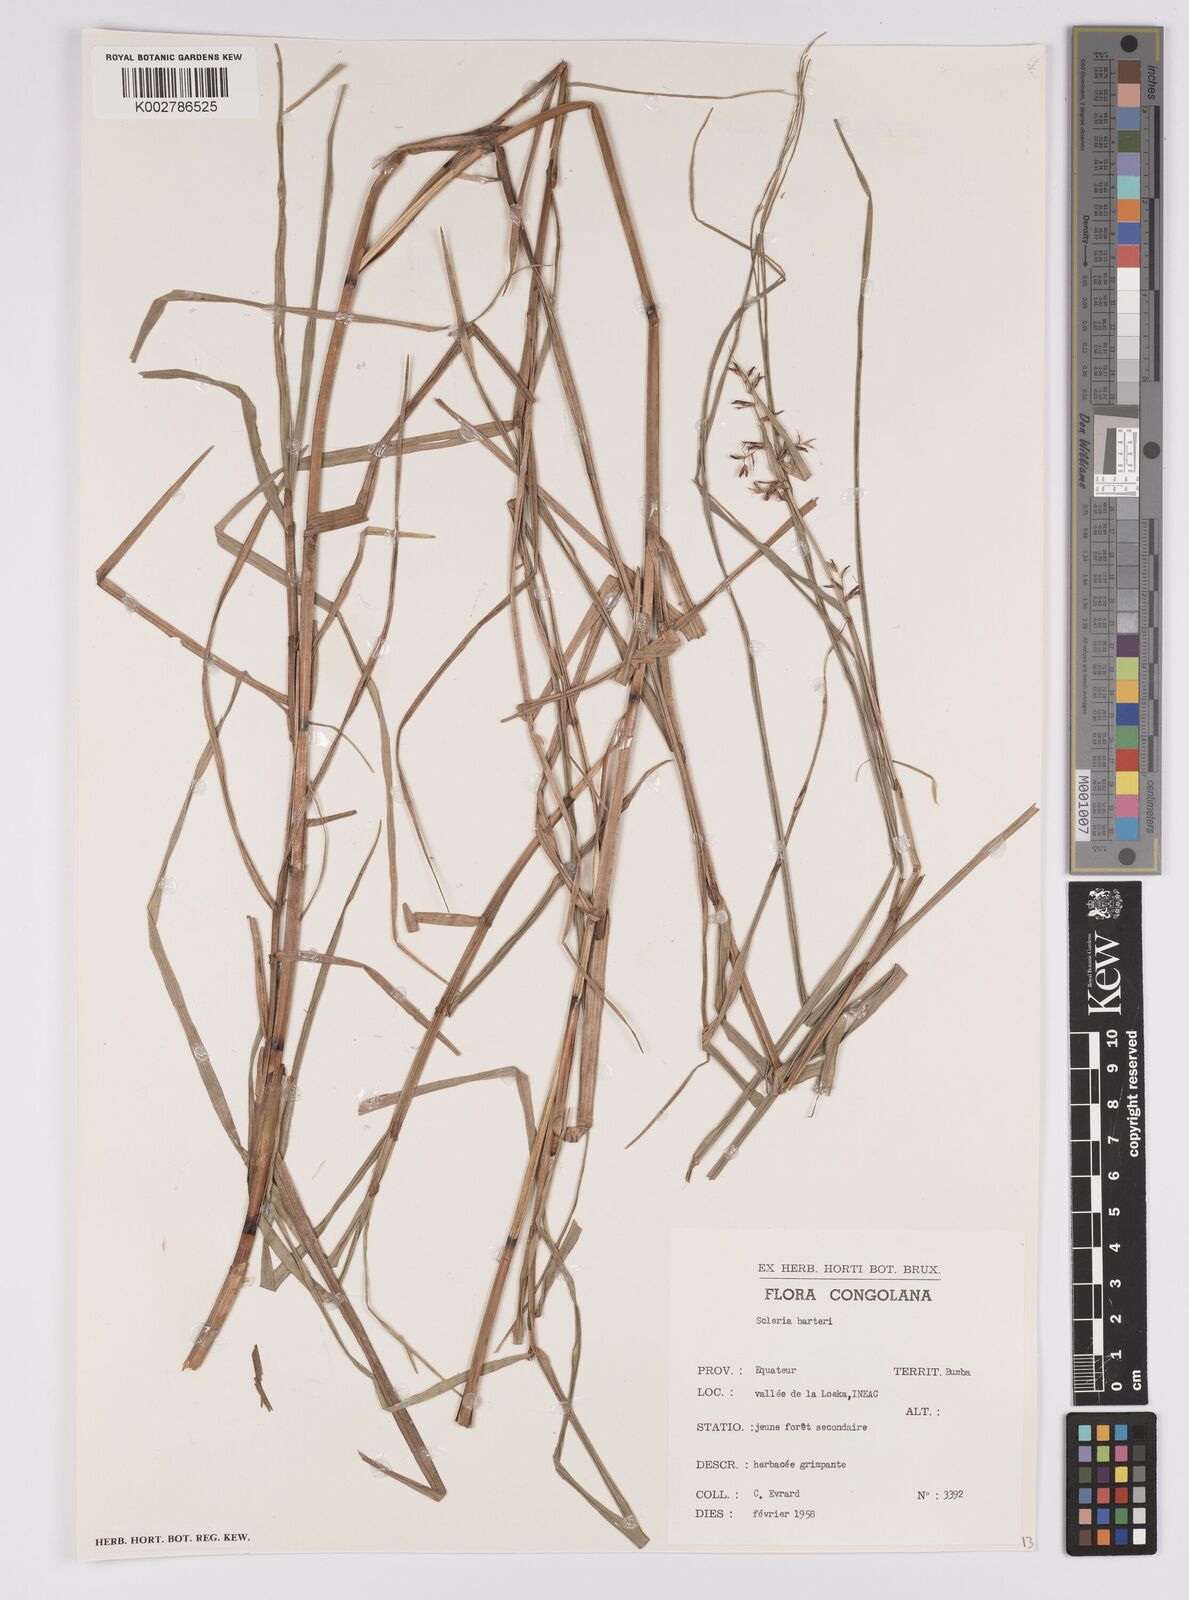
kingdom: Plantae
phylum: Tracheophyta
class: Liliopsida
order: Poales
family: Cyperaceae
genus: Scleria
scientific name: Scleria boivinii
